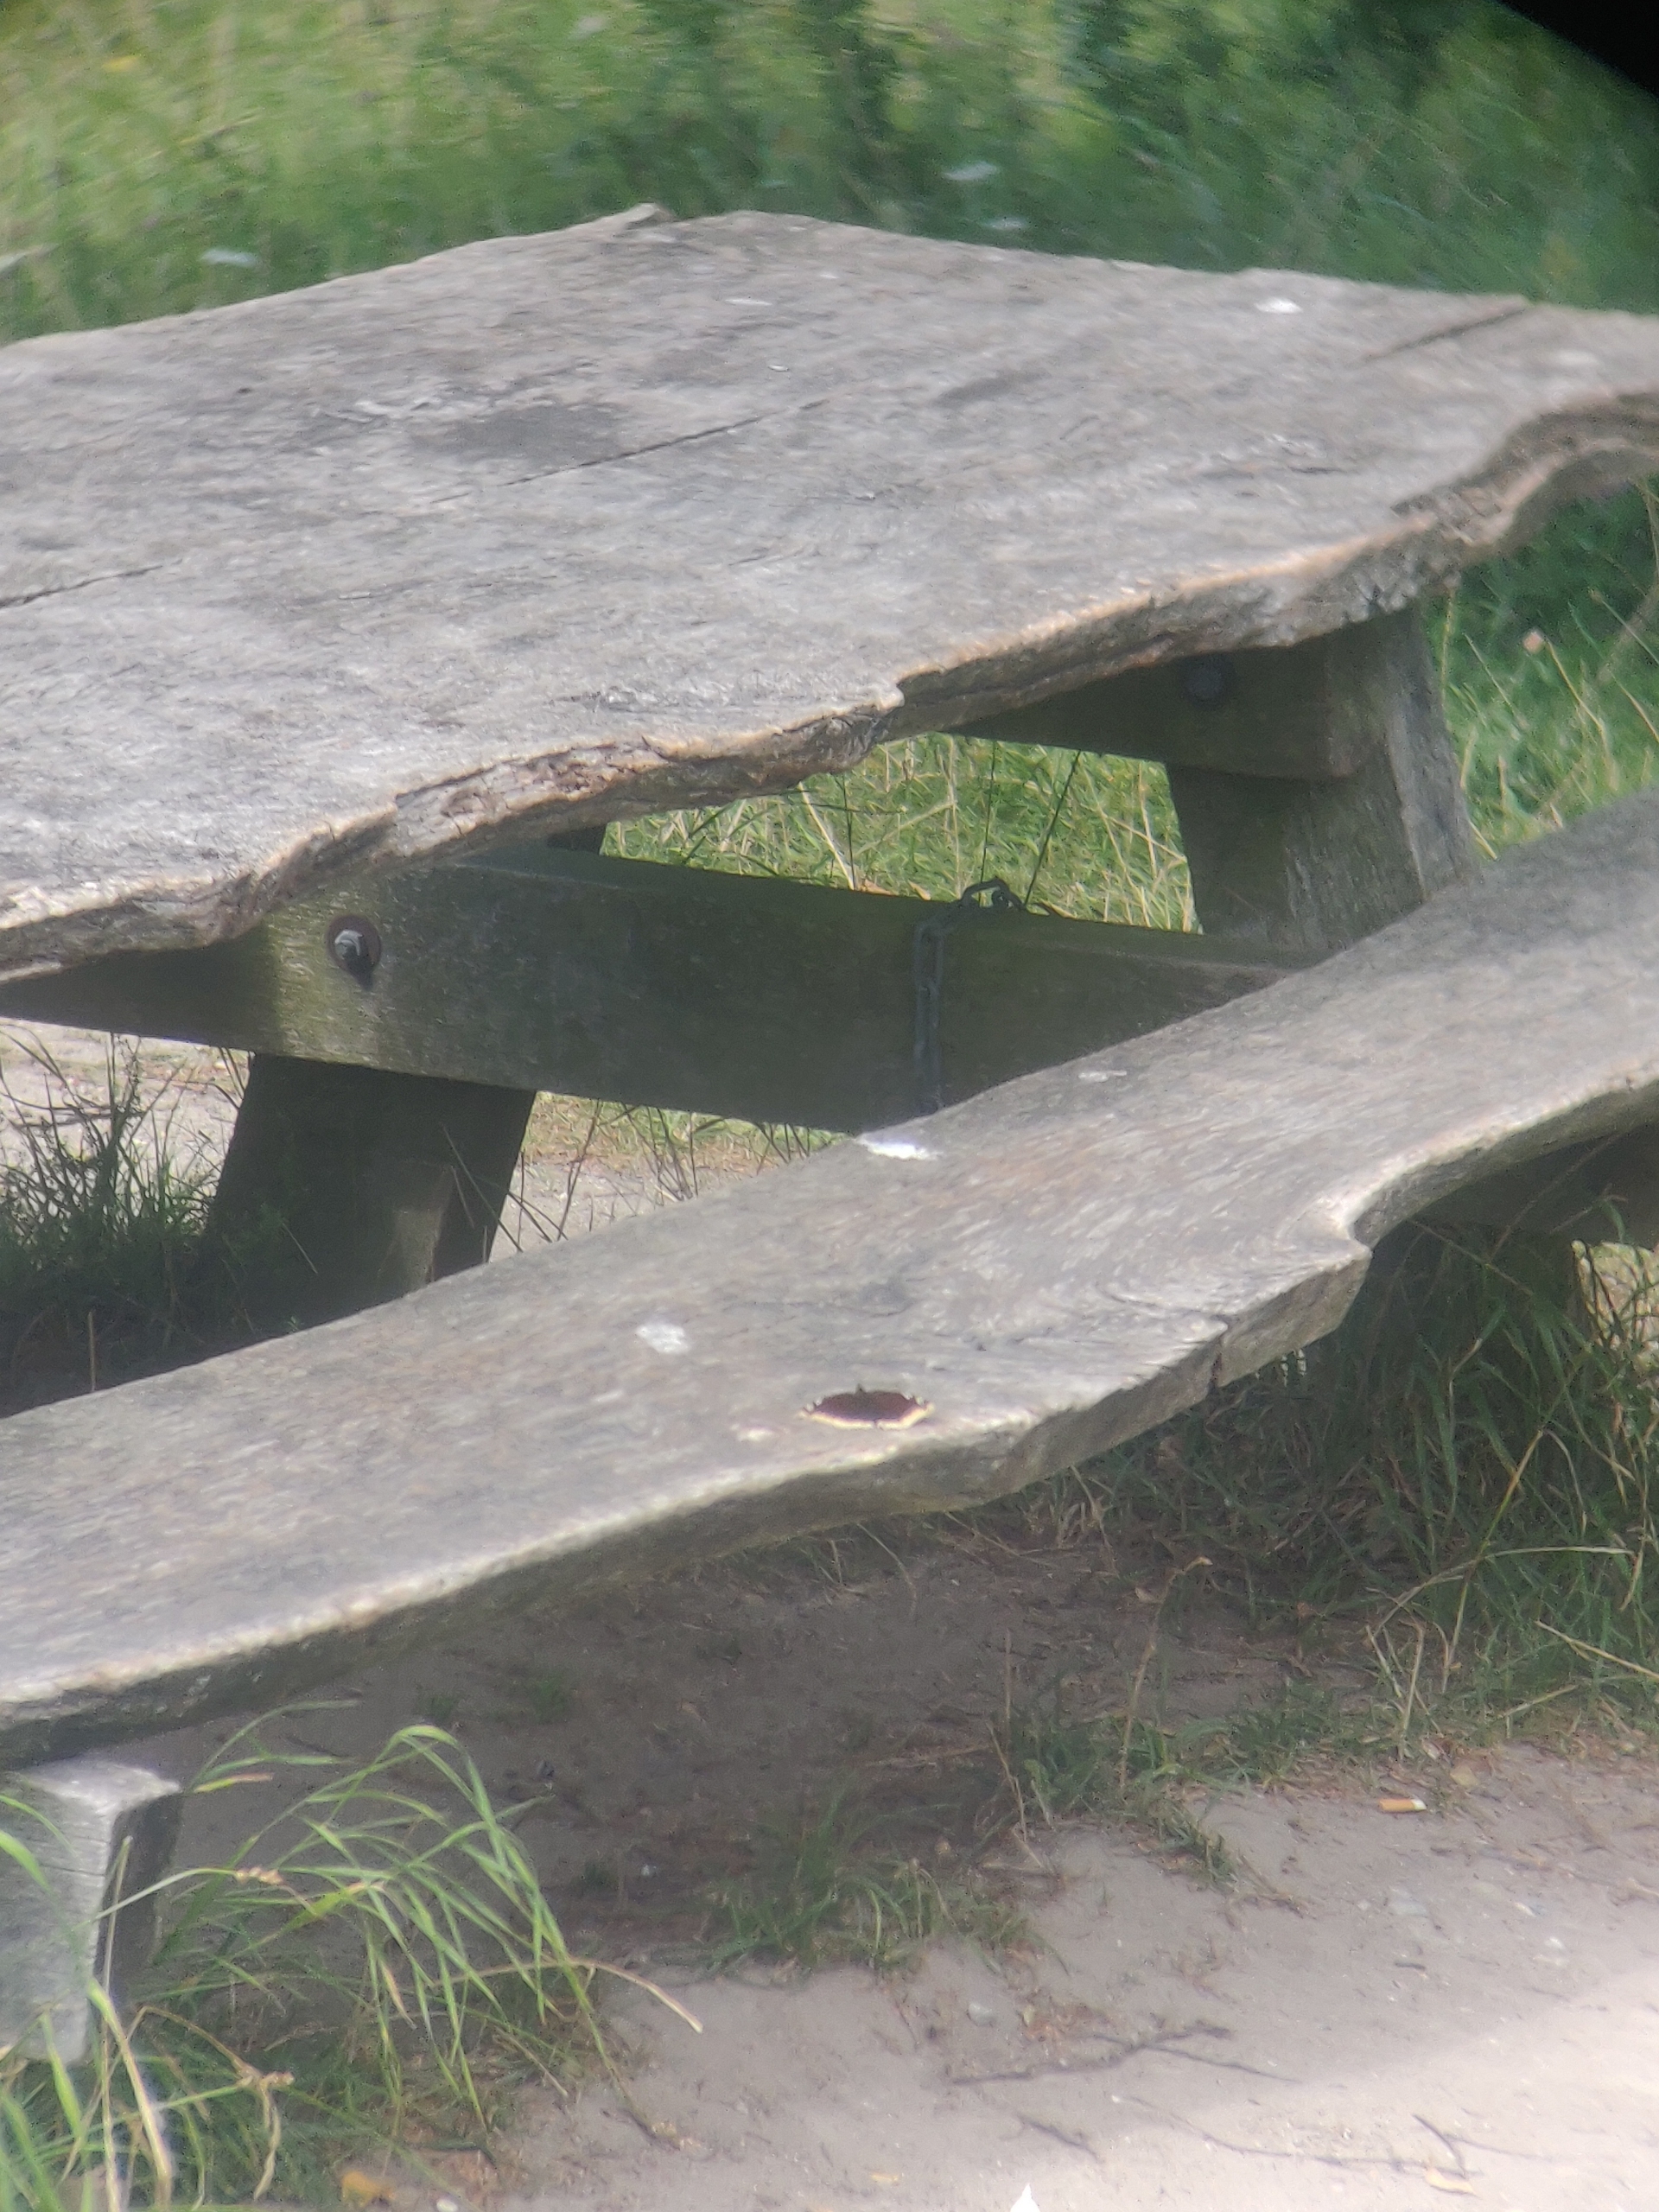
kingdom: Animalia
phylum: Arthropoda
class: Insecta
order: Lepidoptera
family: Nymphalidae
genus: Nymphalis
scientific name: Nymphalis antiopa
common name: Sørgekåbe
